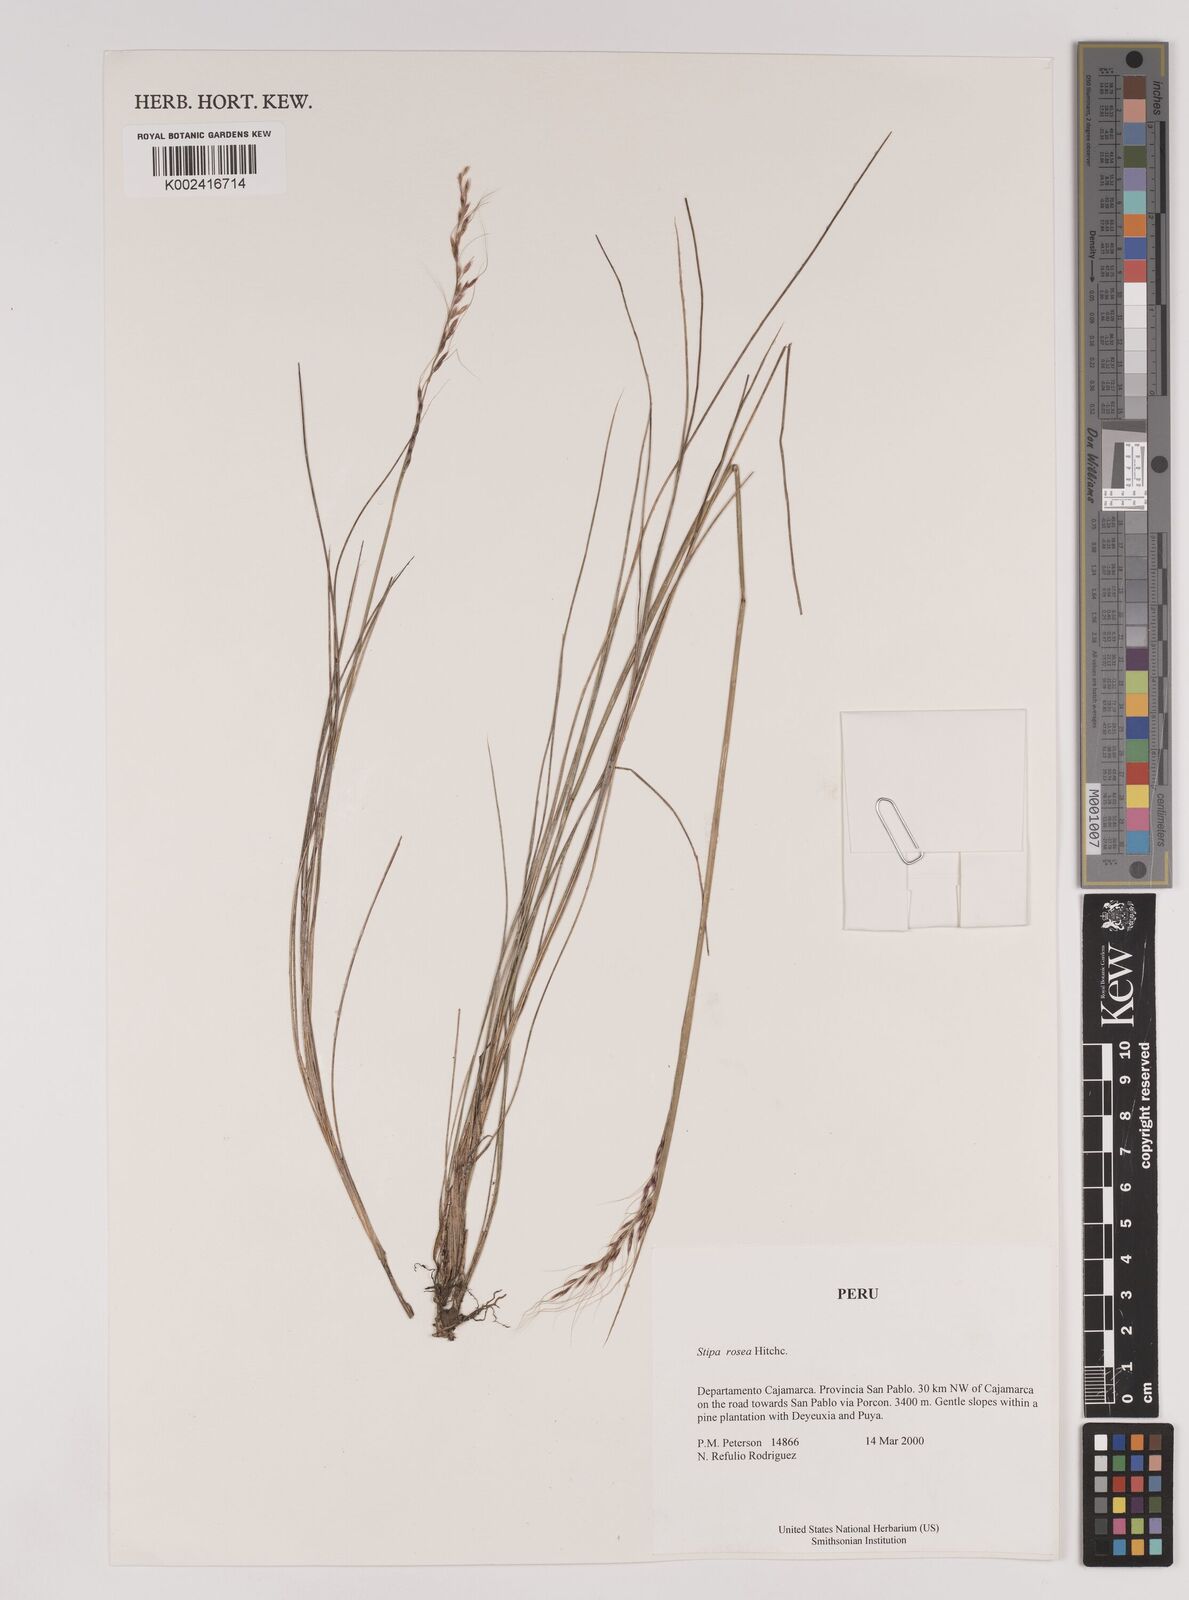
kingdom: Plantae
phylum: Tracheophyta
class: Liliopsida
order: Poales
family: Poaceae
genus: Stipa
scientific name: Stipa rosea
